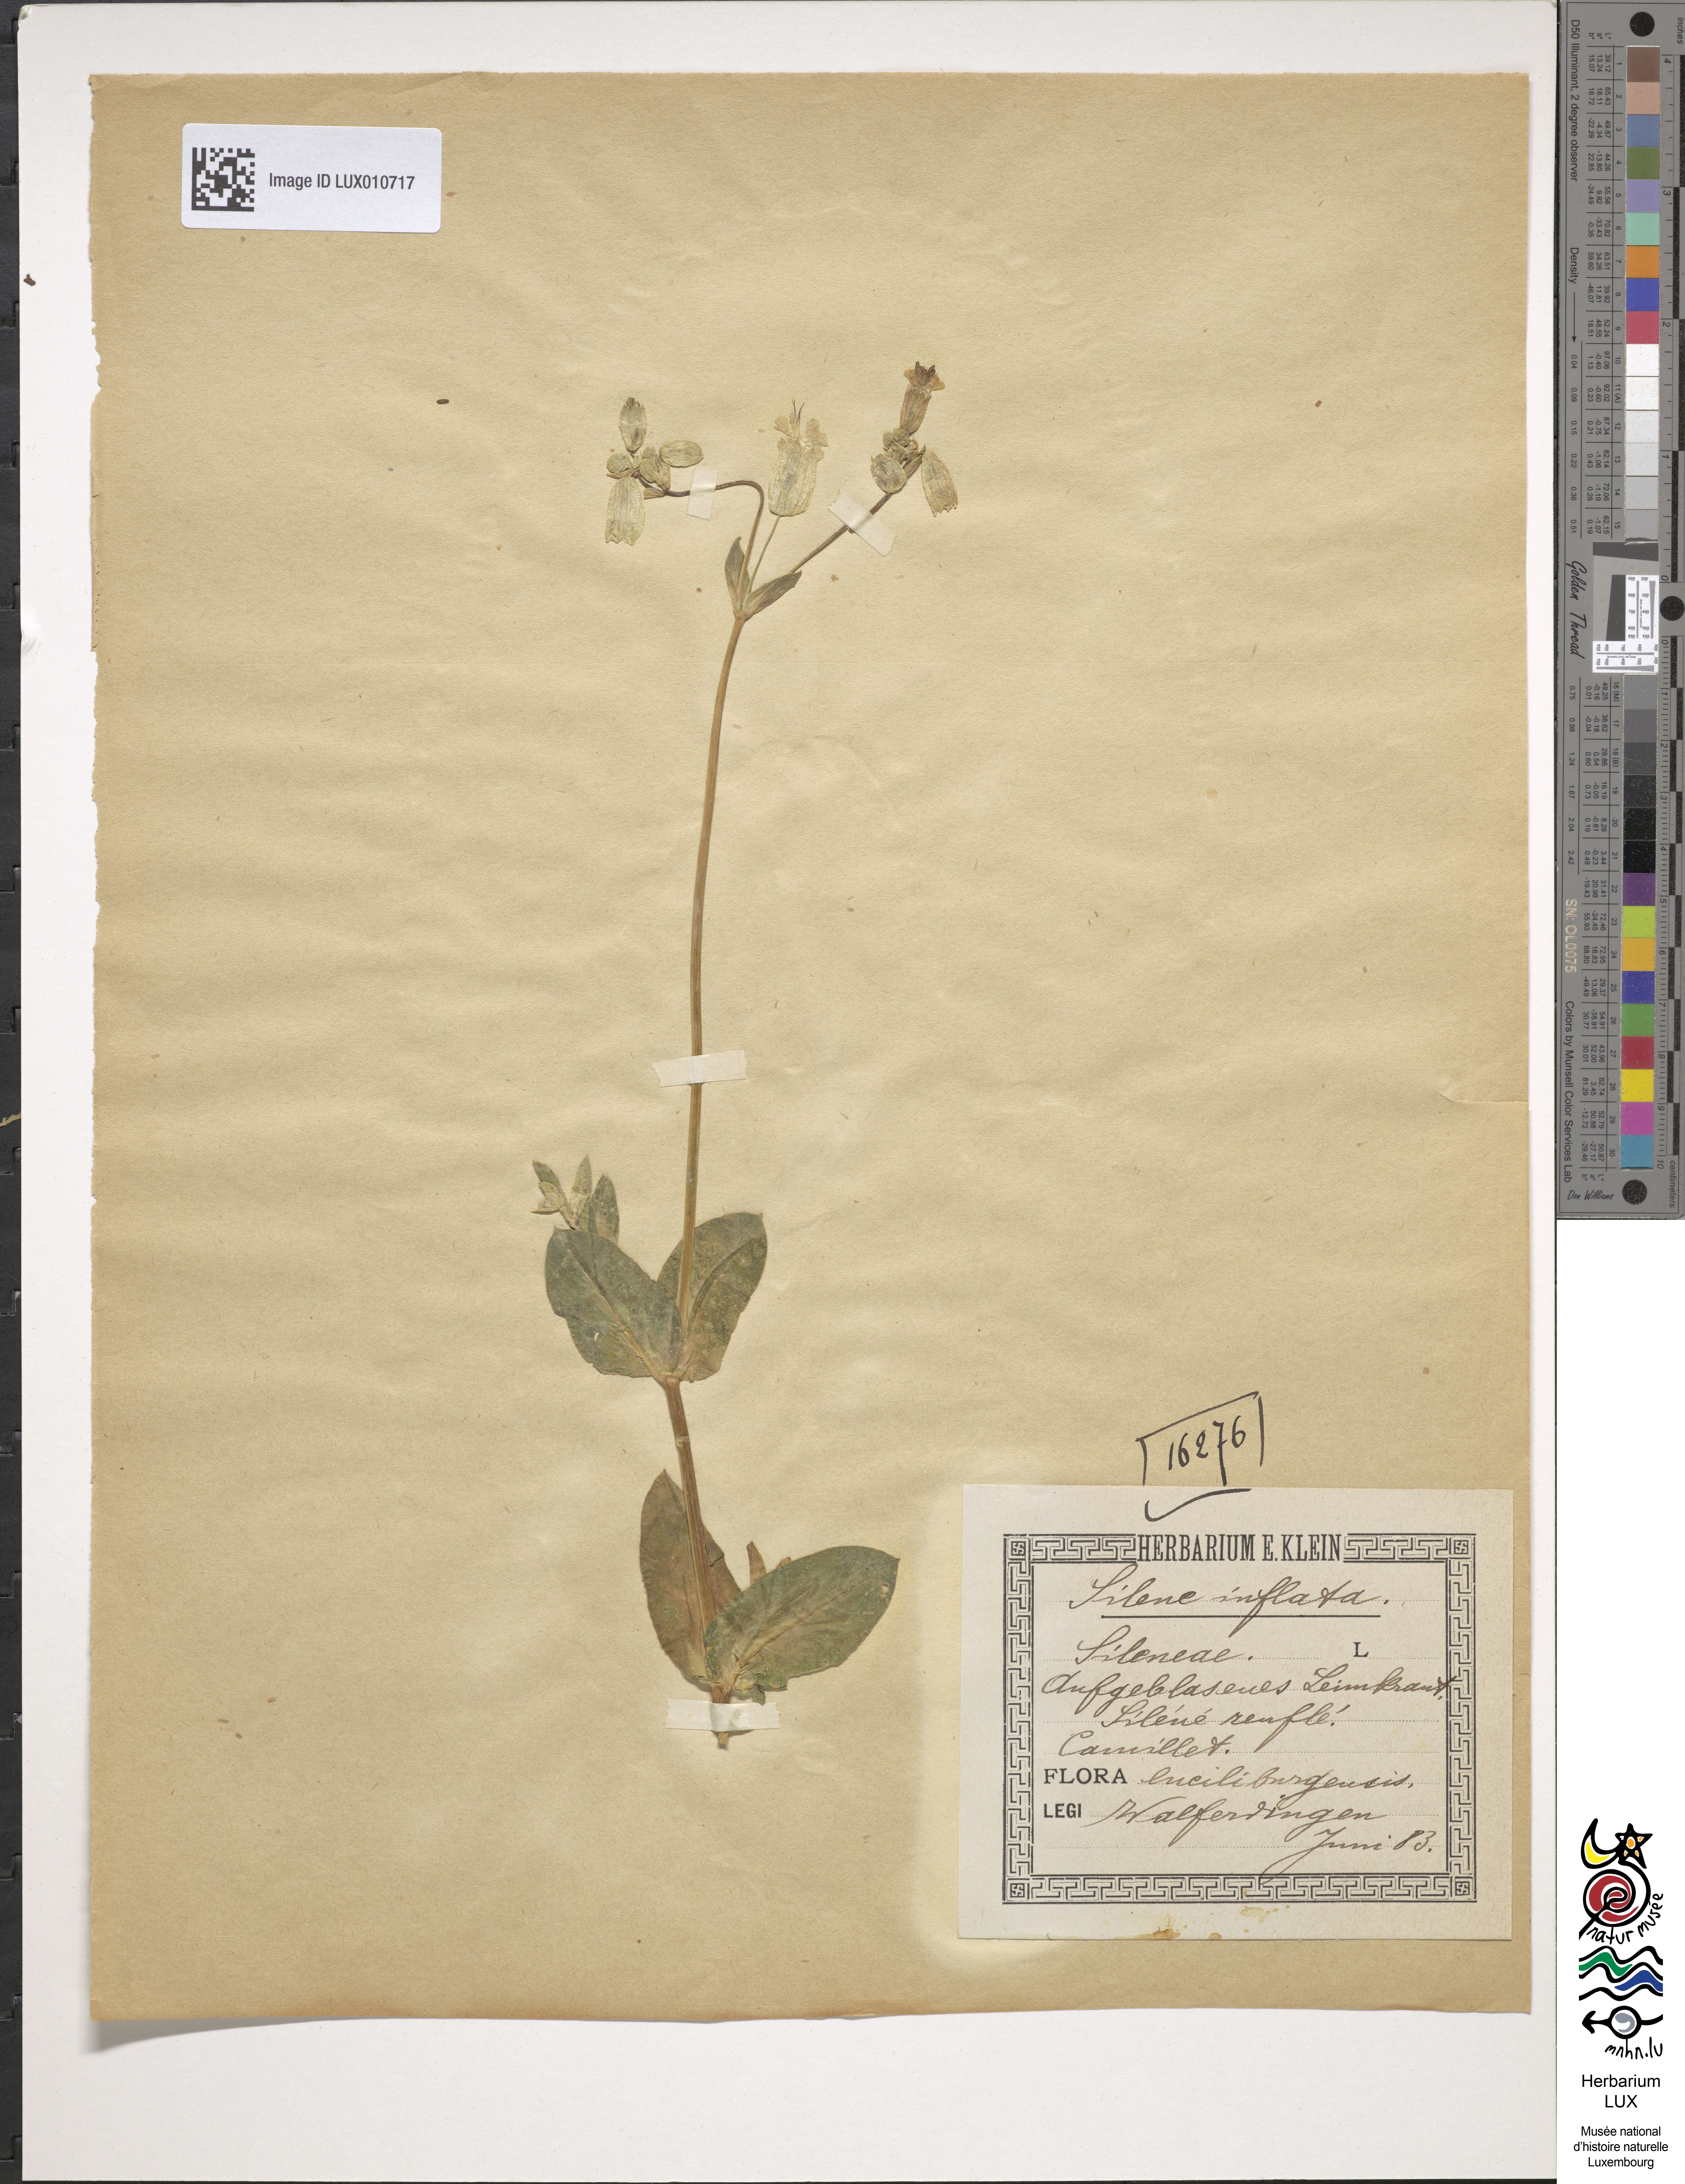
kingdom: Plantae
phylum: Tracheophyta
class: Magnoliopsida
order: Caryophyllales
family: Caryophyllaceae
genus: Silene
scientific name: Silene vulgaris
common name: Bladder campion
